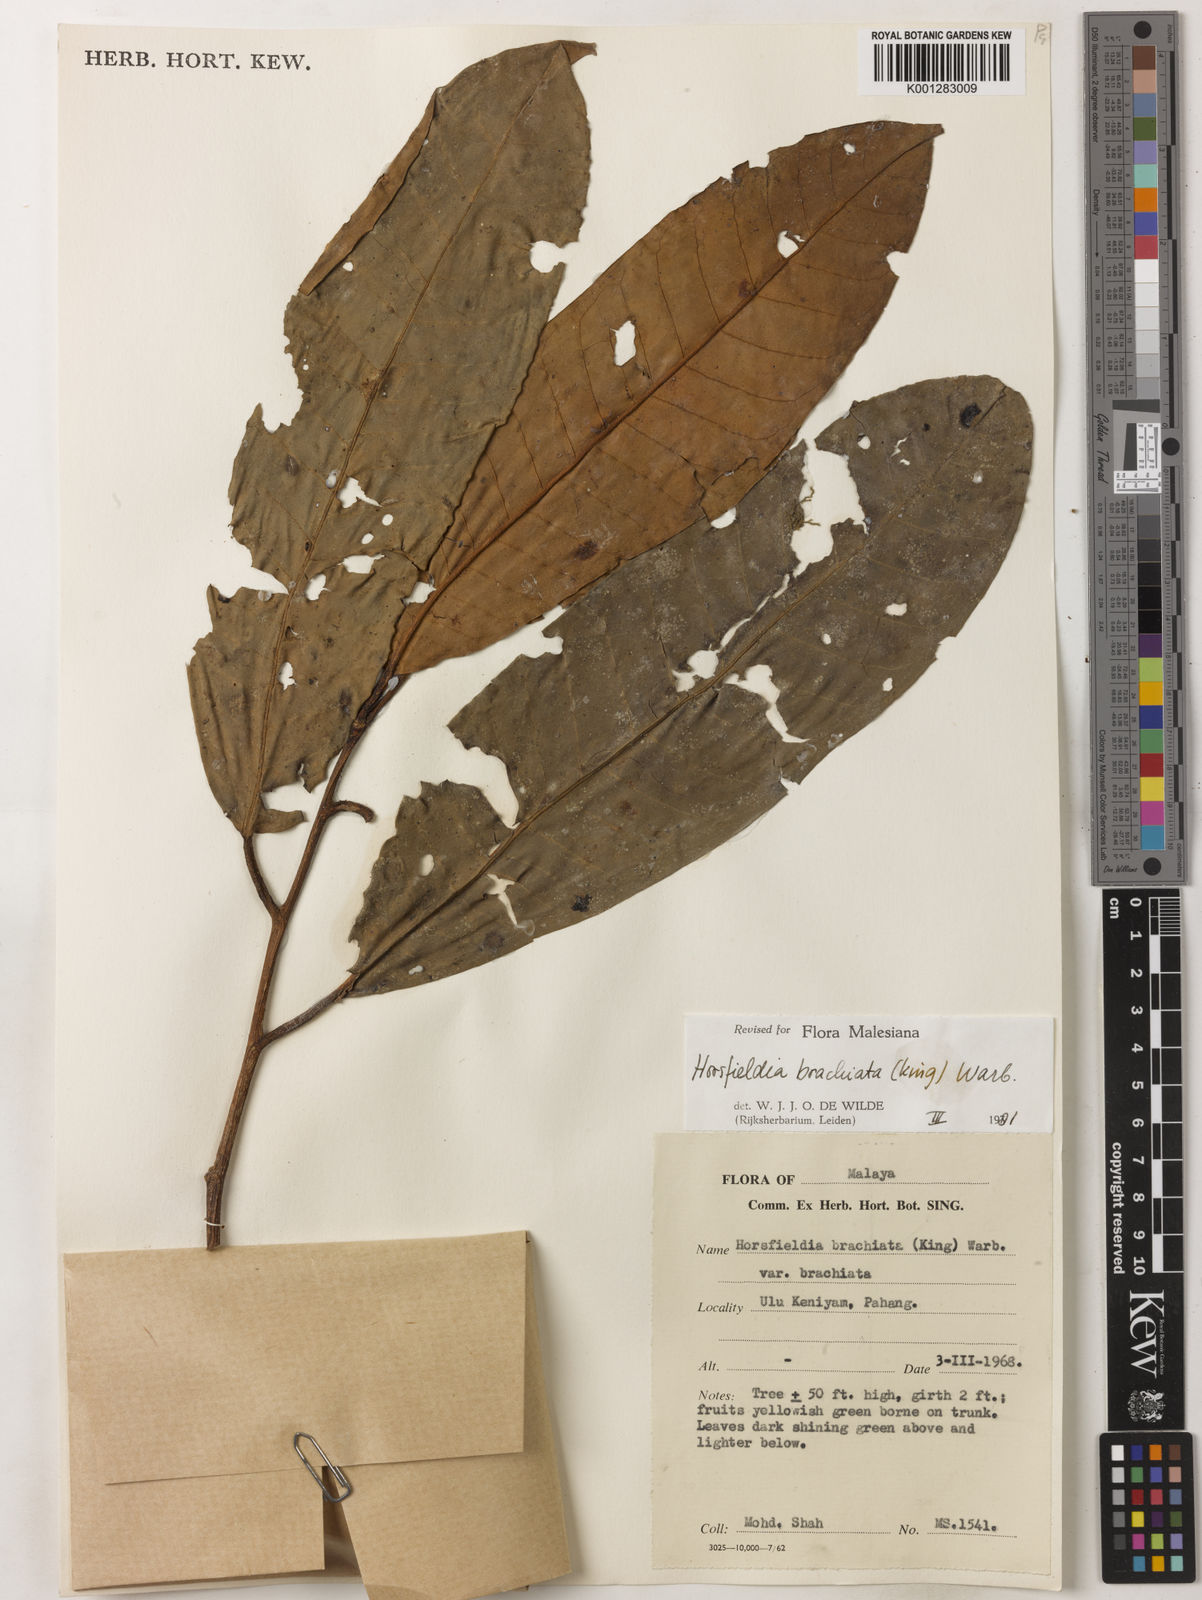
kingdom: Plantae
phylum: Tracheophyta
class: Magnoliopsida
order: Magnoliales
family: Myristicaceae
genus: Horsfieldia
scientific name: Horsfieldia brachiata
